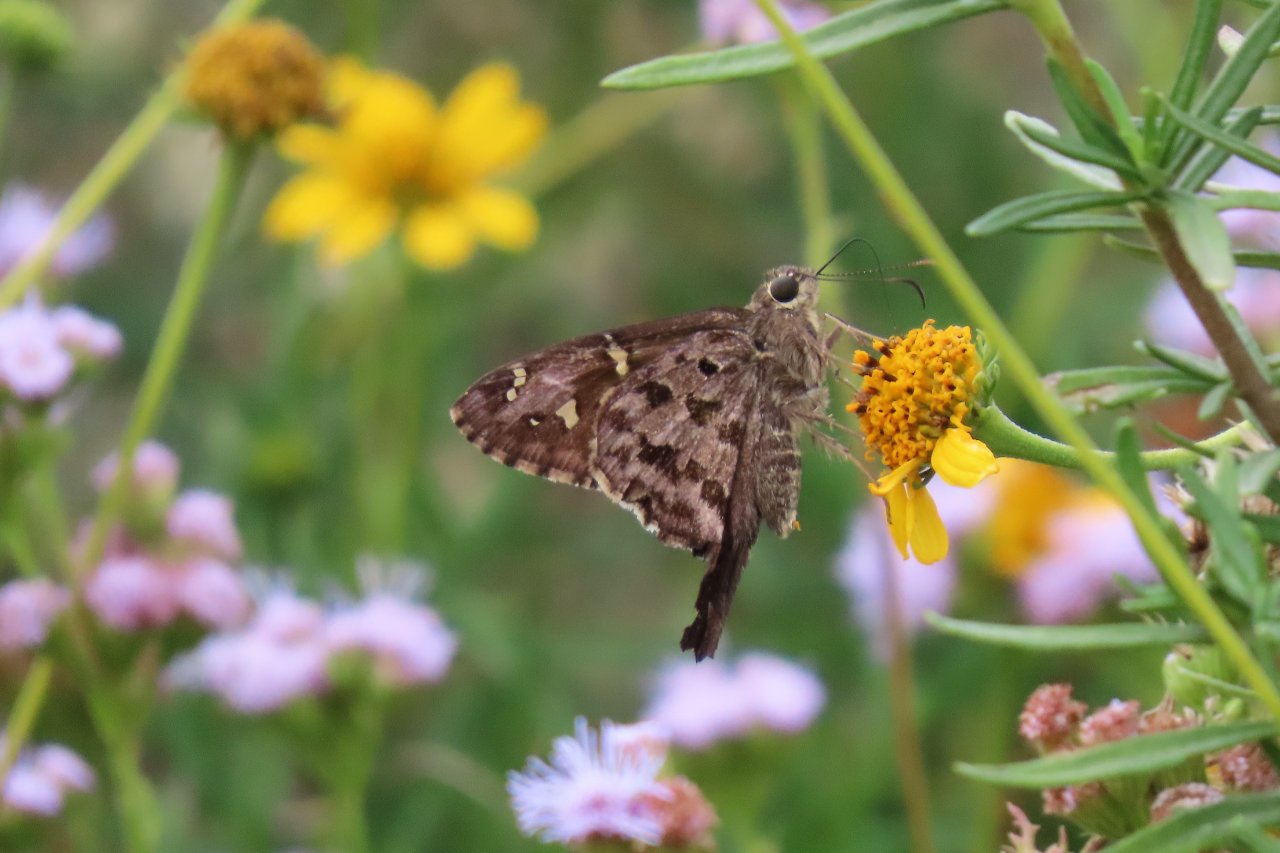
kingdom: Animalia
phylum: Arthropoda
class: Insecta
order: Lepidoptera
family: Hesperiidae
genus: Urbanus
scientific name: Urbanus dorantes
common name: Dorantes Longtail
